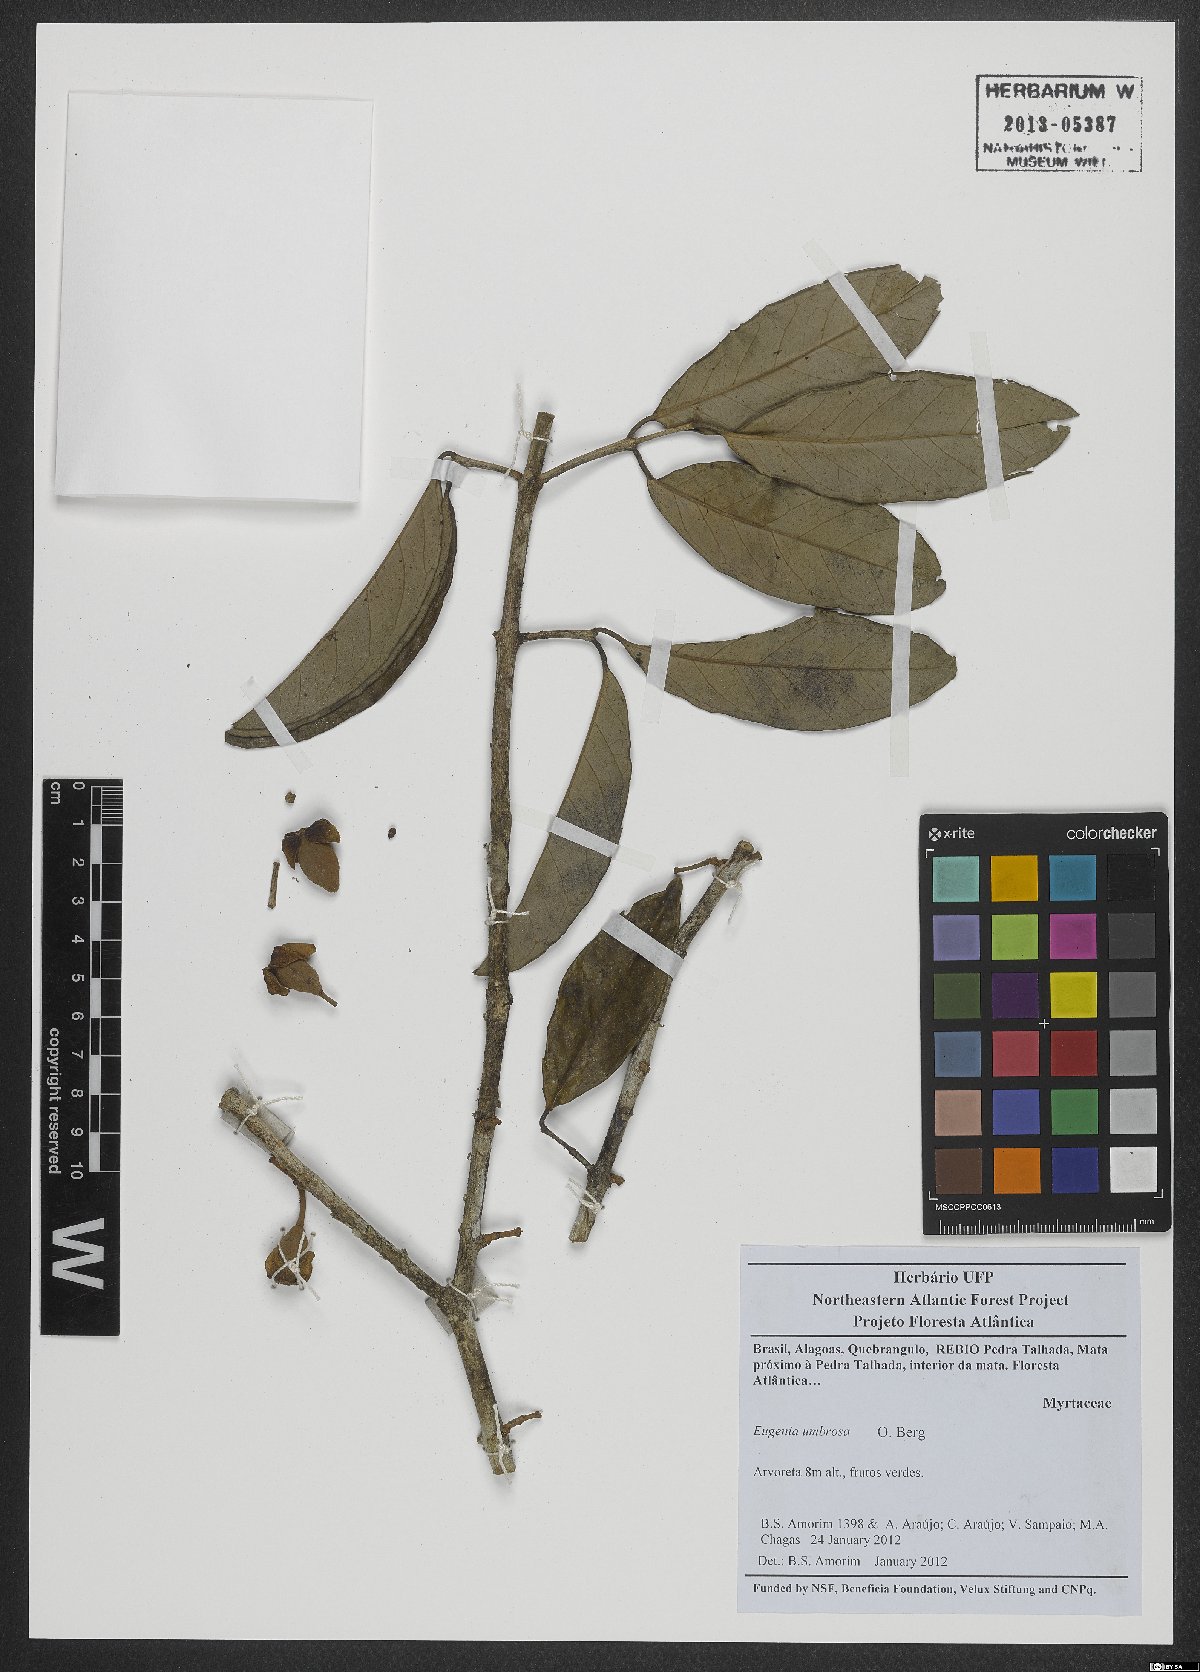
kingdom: Plantae
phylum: Tracheophyta
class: Magnoliopsida
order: Myrtales
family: Myrtaceae
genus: Eugenia
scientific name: Eugenia umbrosa
